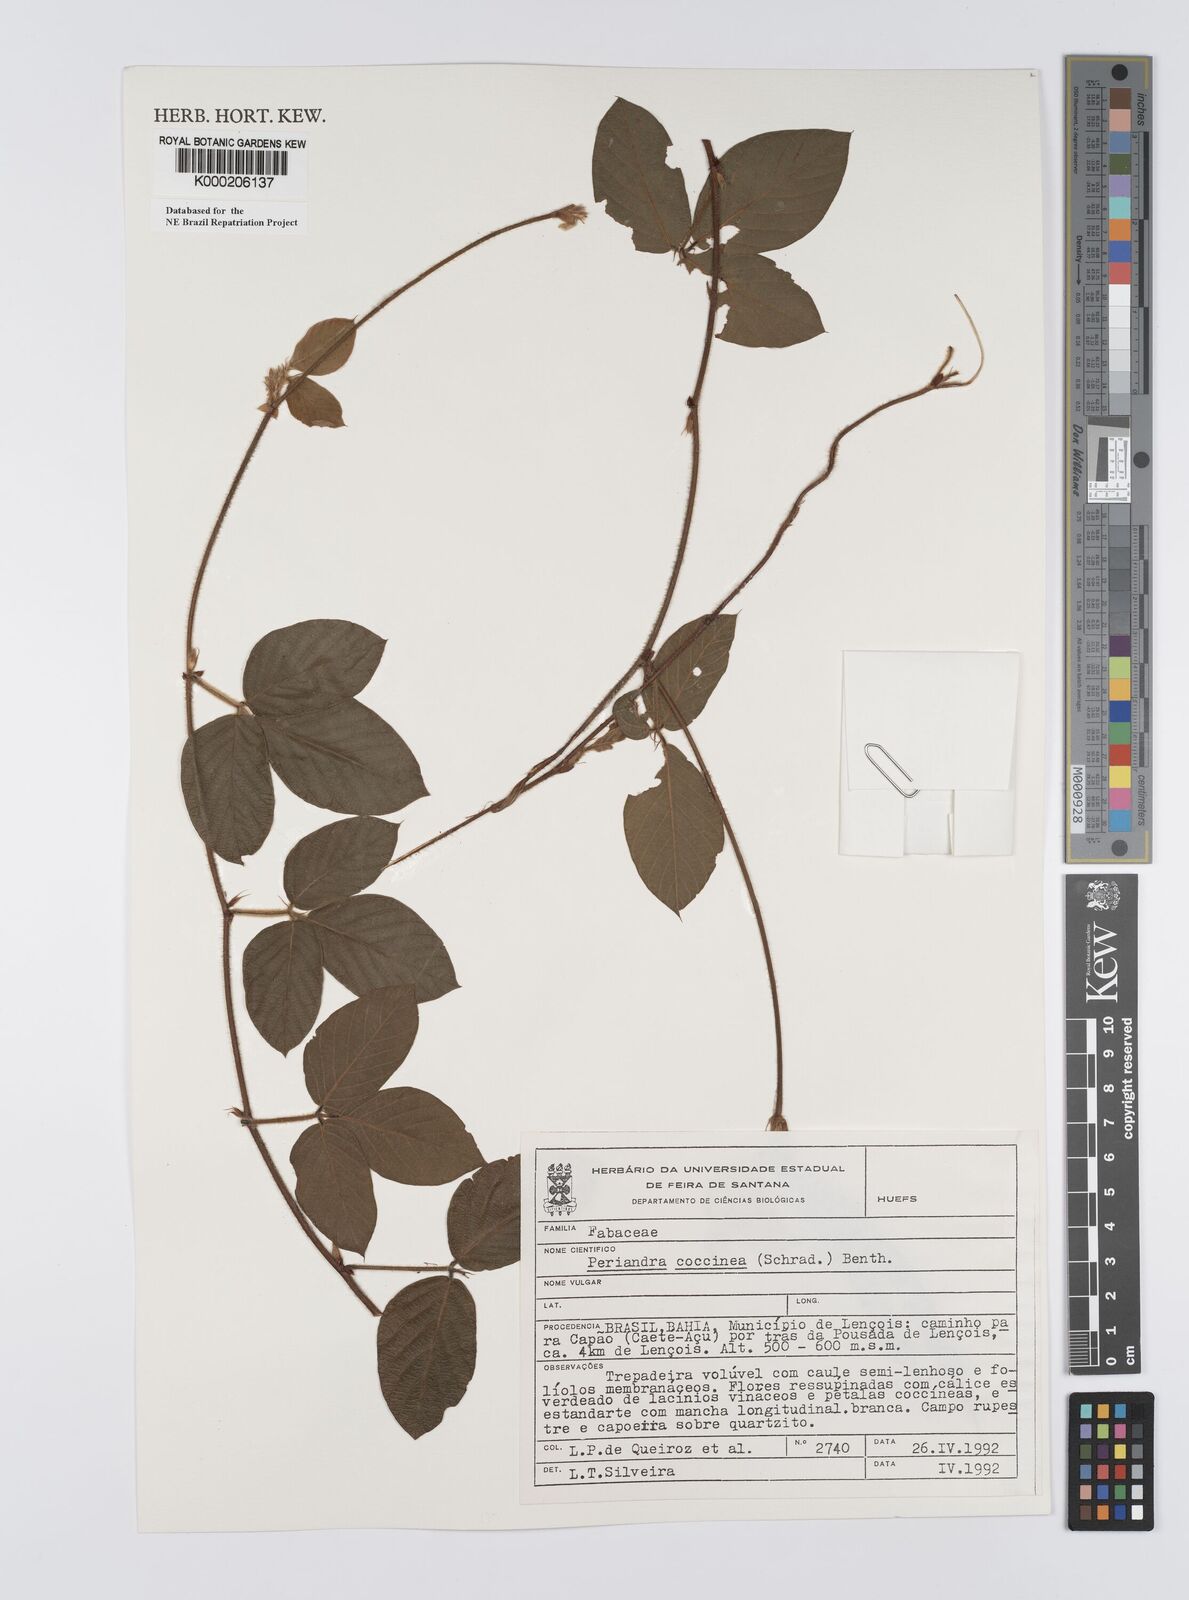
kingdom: Plantae
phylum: Tracheophyta
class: Magnoliopsida
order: Fabales
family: Fabaceae
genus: Periandra
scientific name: Periandra coccinea
